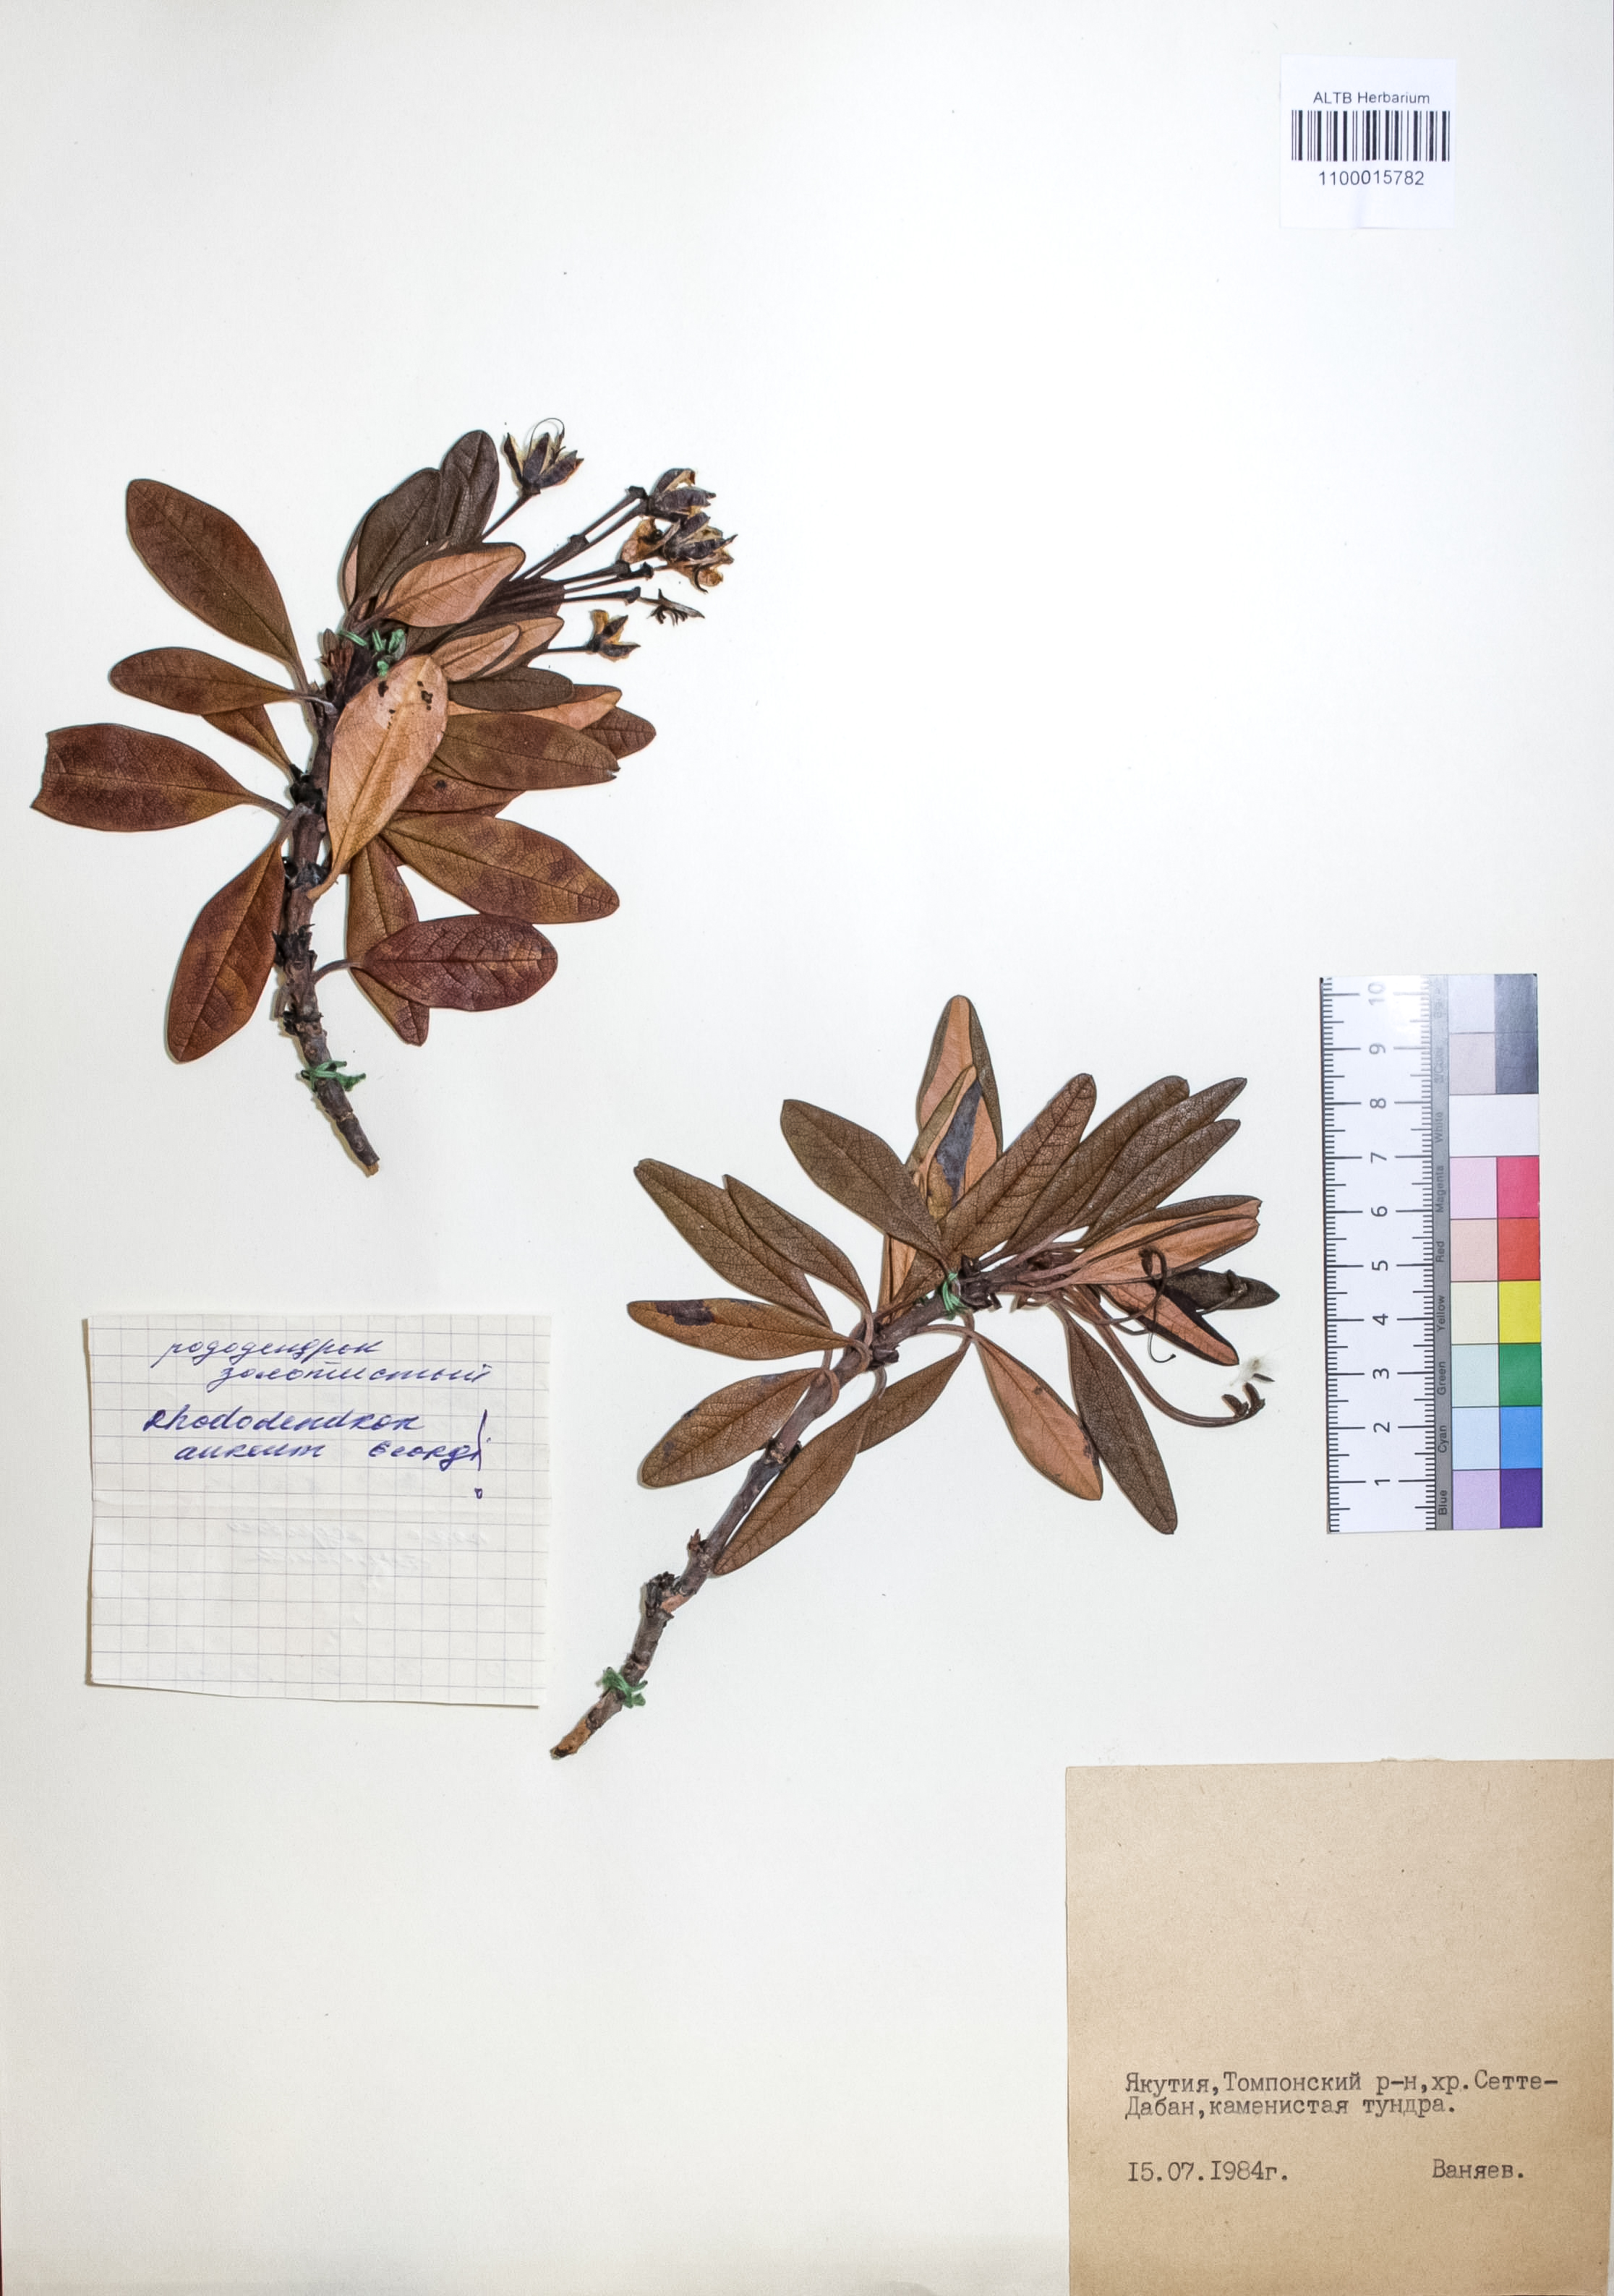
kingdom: Plantae
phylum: Tracheophyta
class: Magnoliopsida
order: Ericales
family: Ericaceae
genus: Rhododendron
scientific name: Rhododendron aureum
